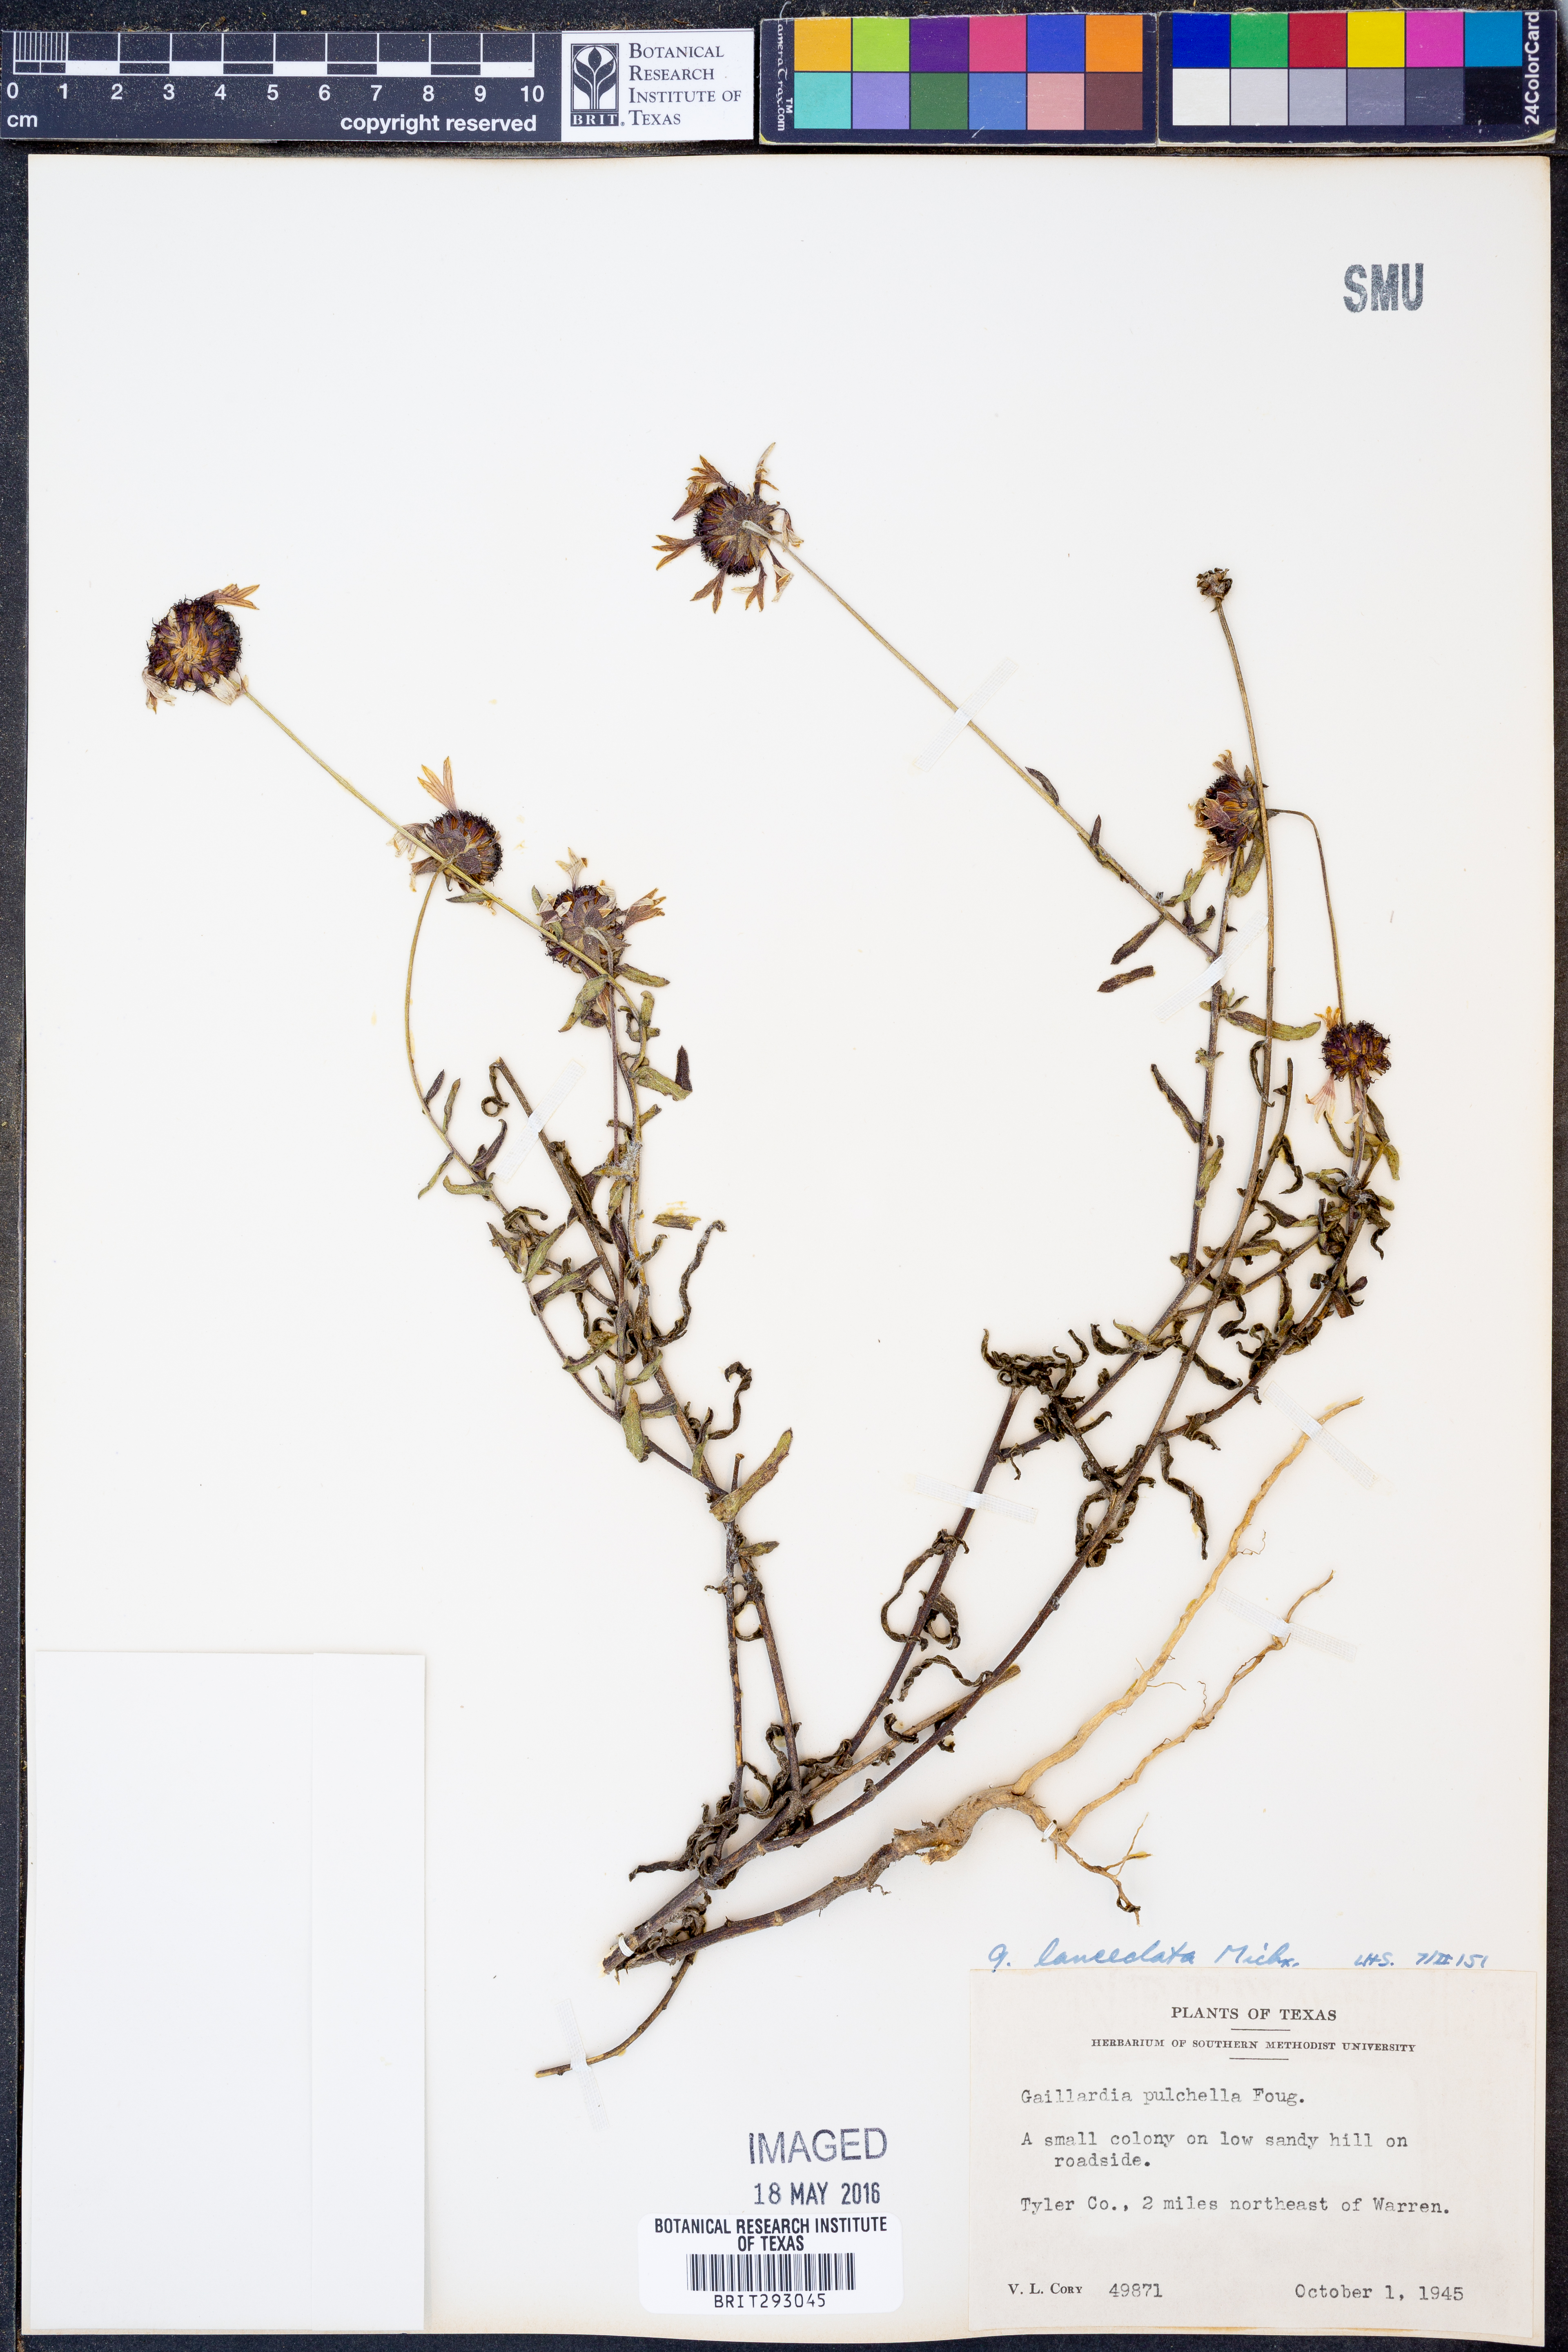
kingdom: Plantae
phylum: Tracheophyta
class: Magnoliopsida
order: Asterales
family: Asteraceae
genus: Gaillardia
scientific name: Gaillardia aestivalis
